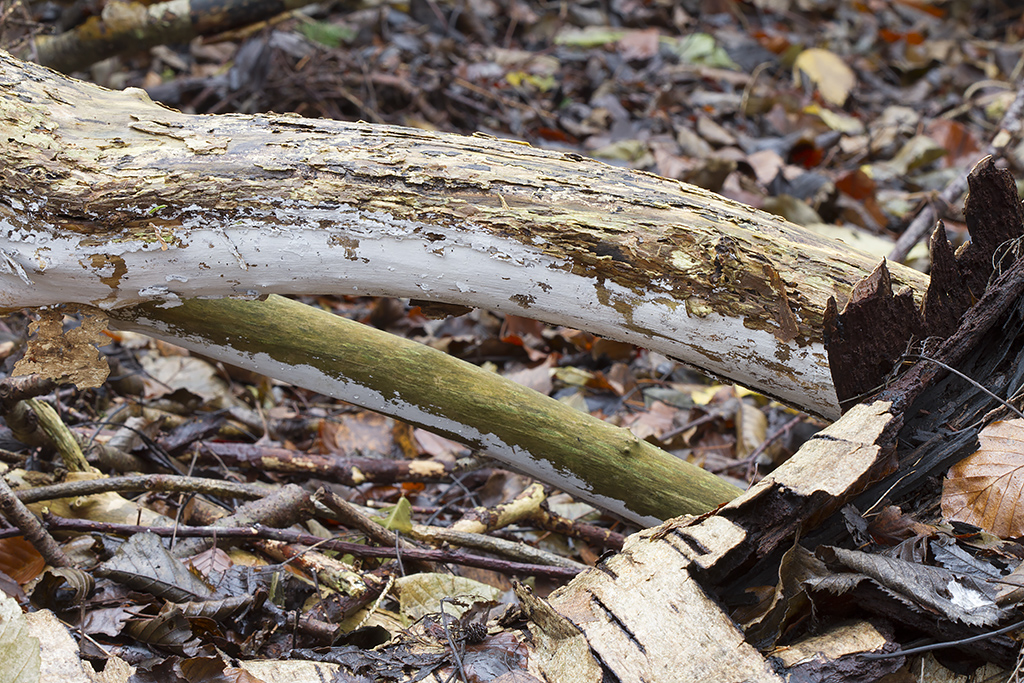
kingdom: Fungi
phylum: Basidiomycota
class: Agaricomycetes
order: Corticiales
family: Corticiaceae
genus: Lyomyces
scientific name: Lyomyces sambuci
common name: almindelig hyldehinde
